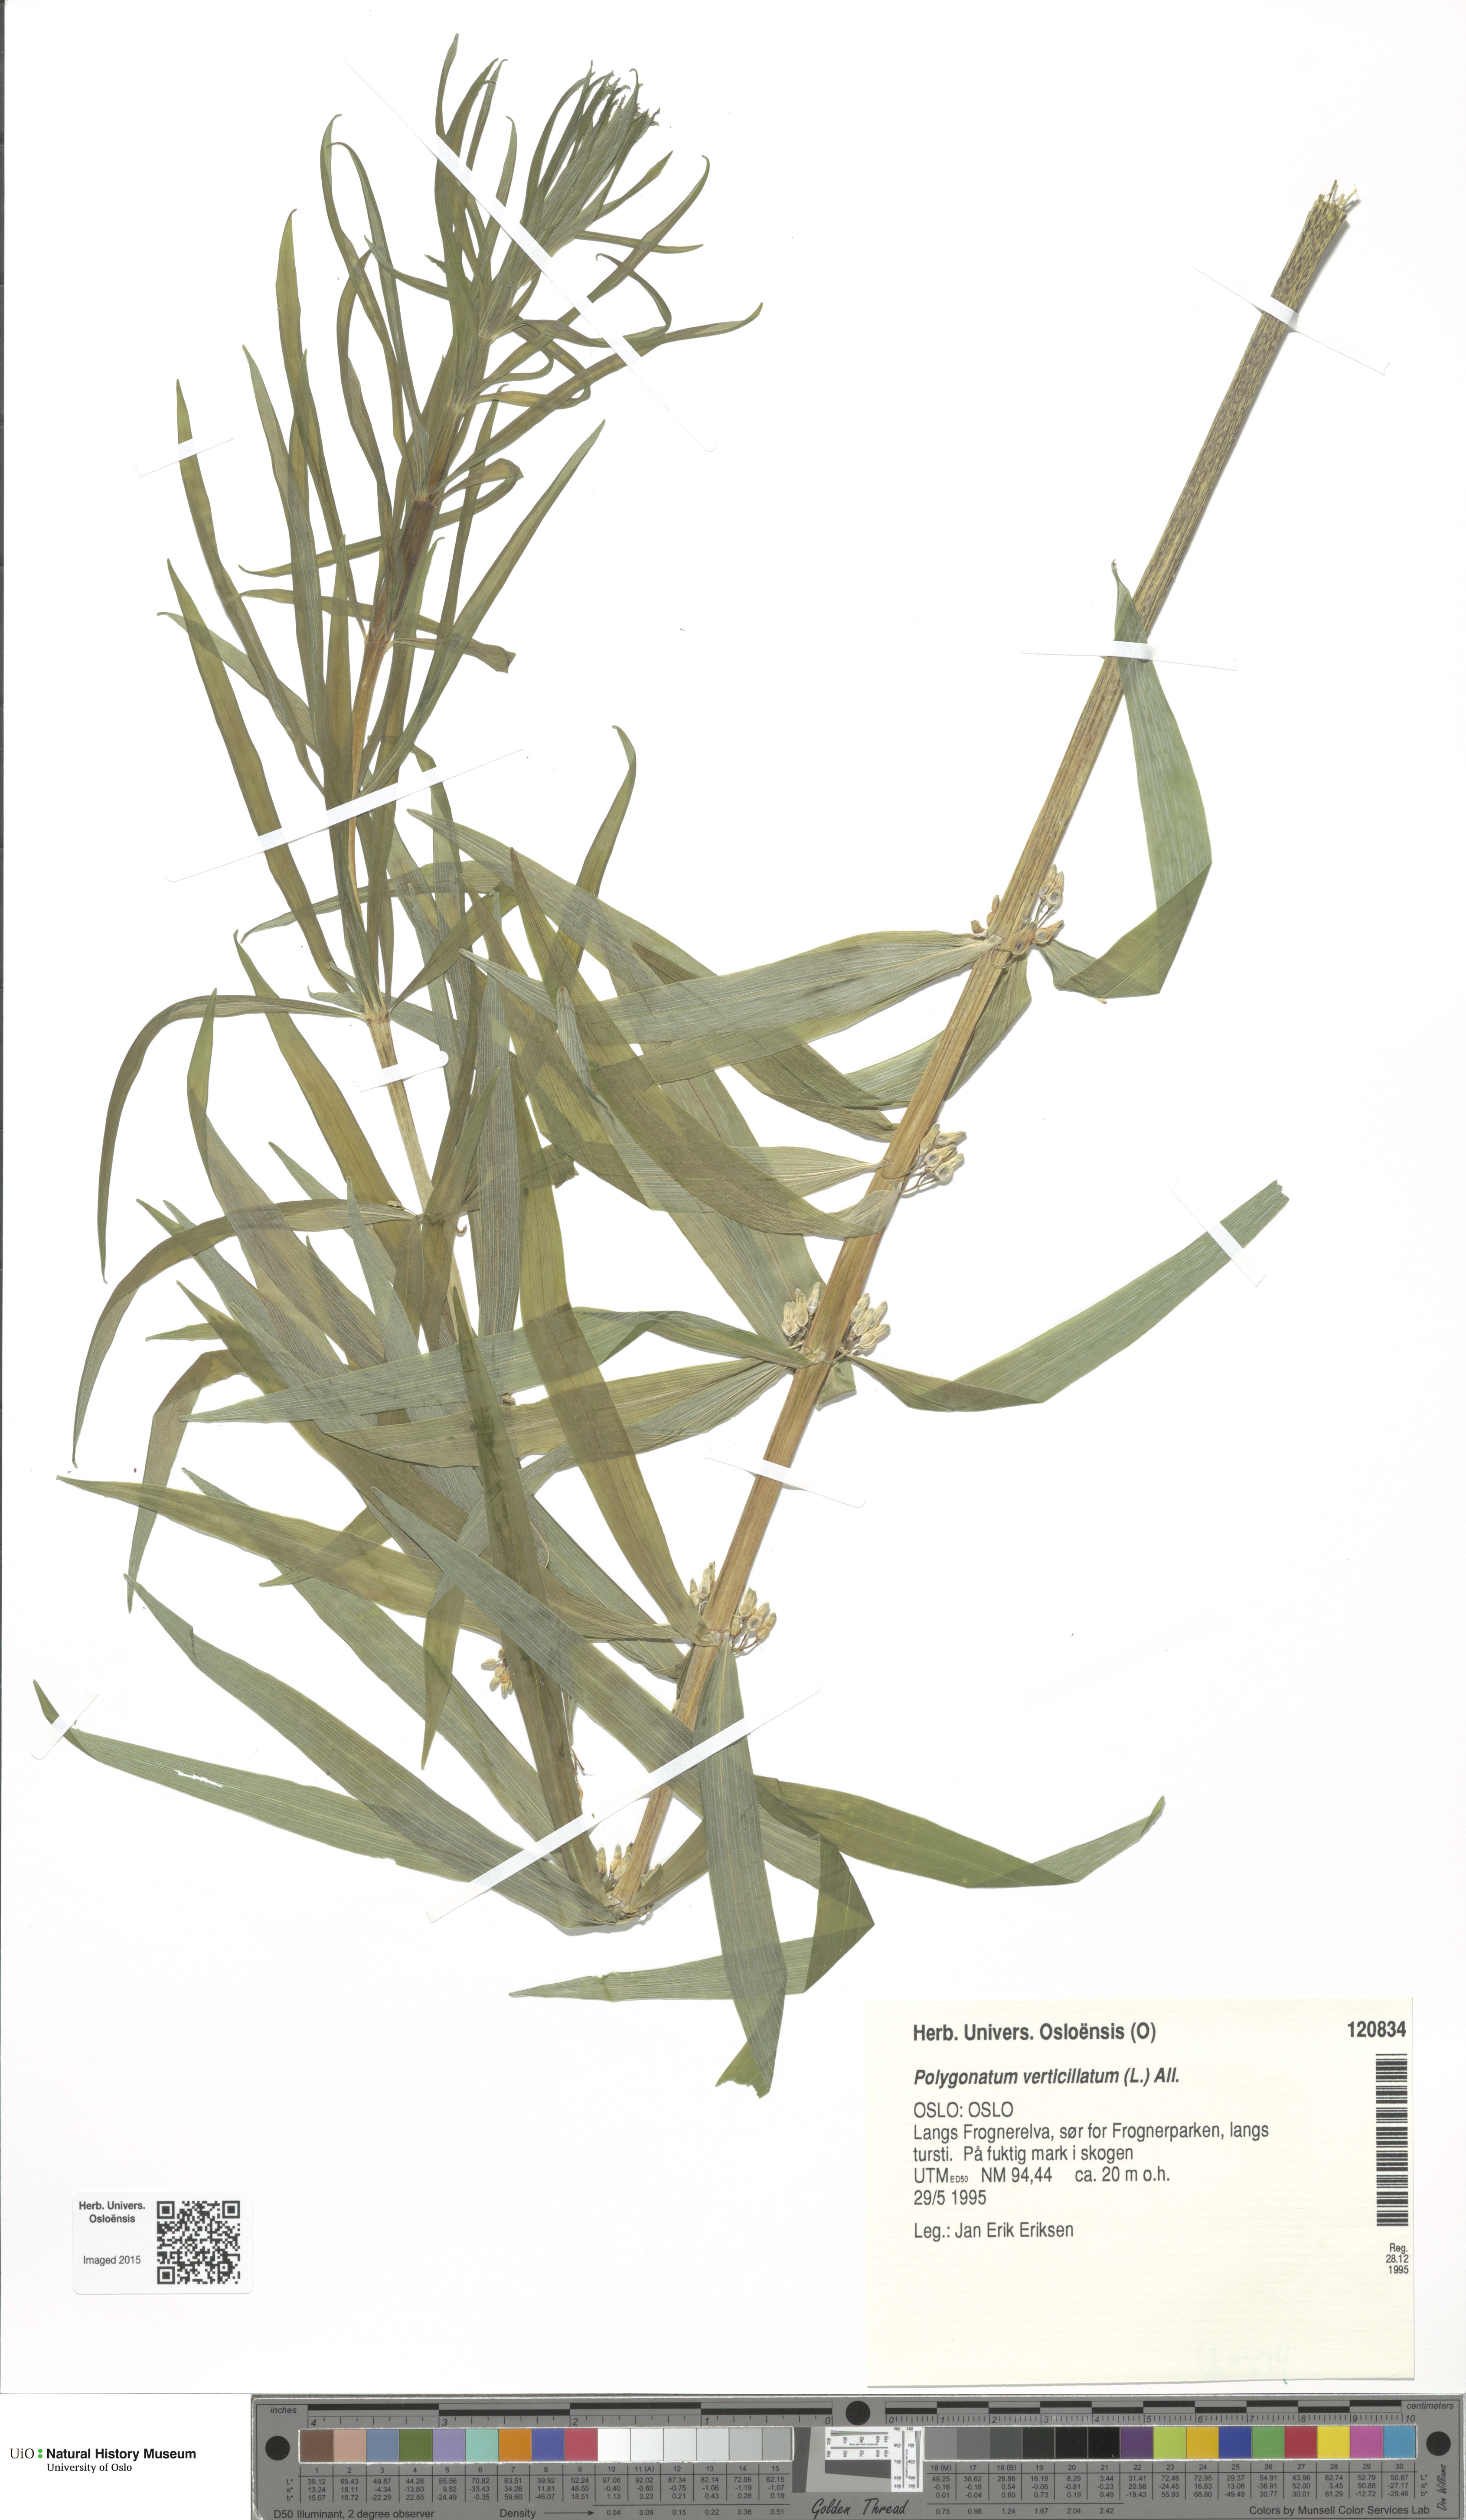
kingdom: Plantae
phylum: Tracheophyta
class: Liliopsida
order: Asparagales
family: Asparagaceae
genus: Polygonatum
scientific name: Polygonatum verticillatum
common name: Whorled solomon's-seal
